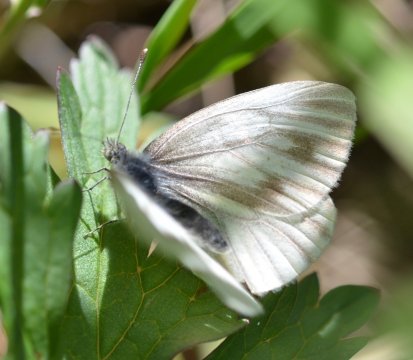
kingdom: Animalia
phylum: Arthropoda
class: Insecta
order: Lepidoptera
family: Pieridae
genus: Pieris
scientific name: Pieris angelika
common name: Arctic White
